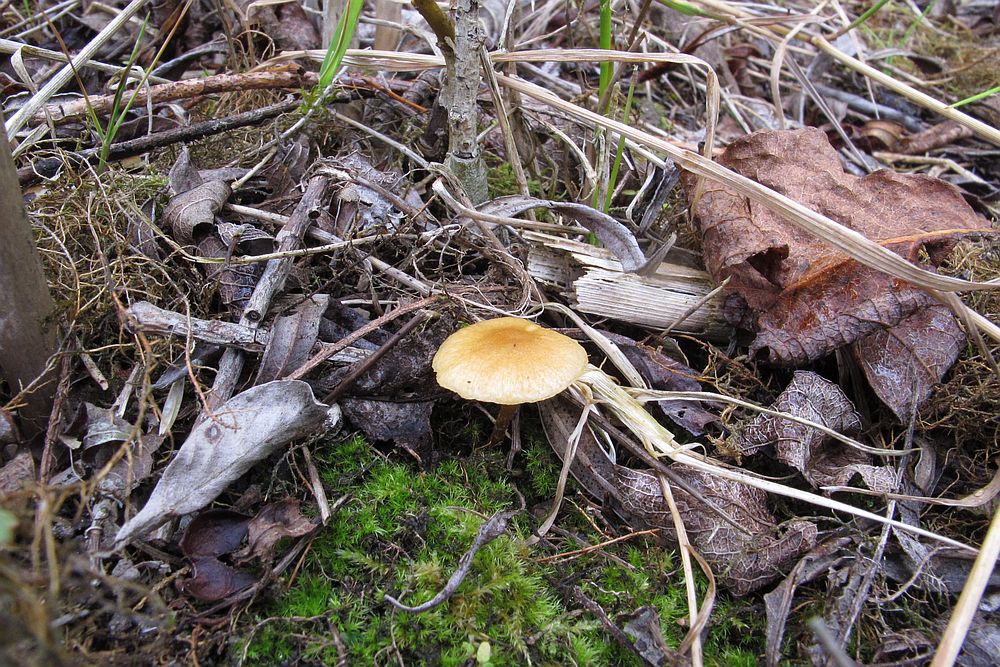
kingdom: Fungi
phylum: Basidiomycota
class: Agaricomycetes
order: Agaricales
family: Strophariaceae
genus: Pholiota
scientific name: Pholiota conissans
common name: pile-skælhat
